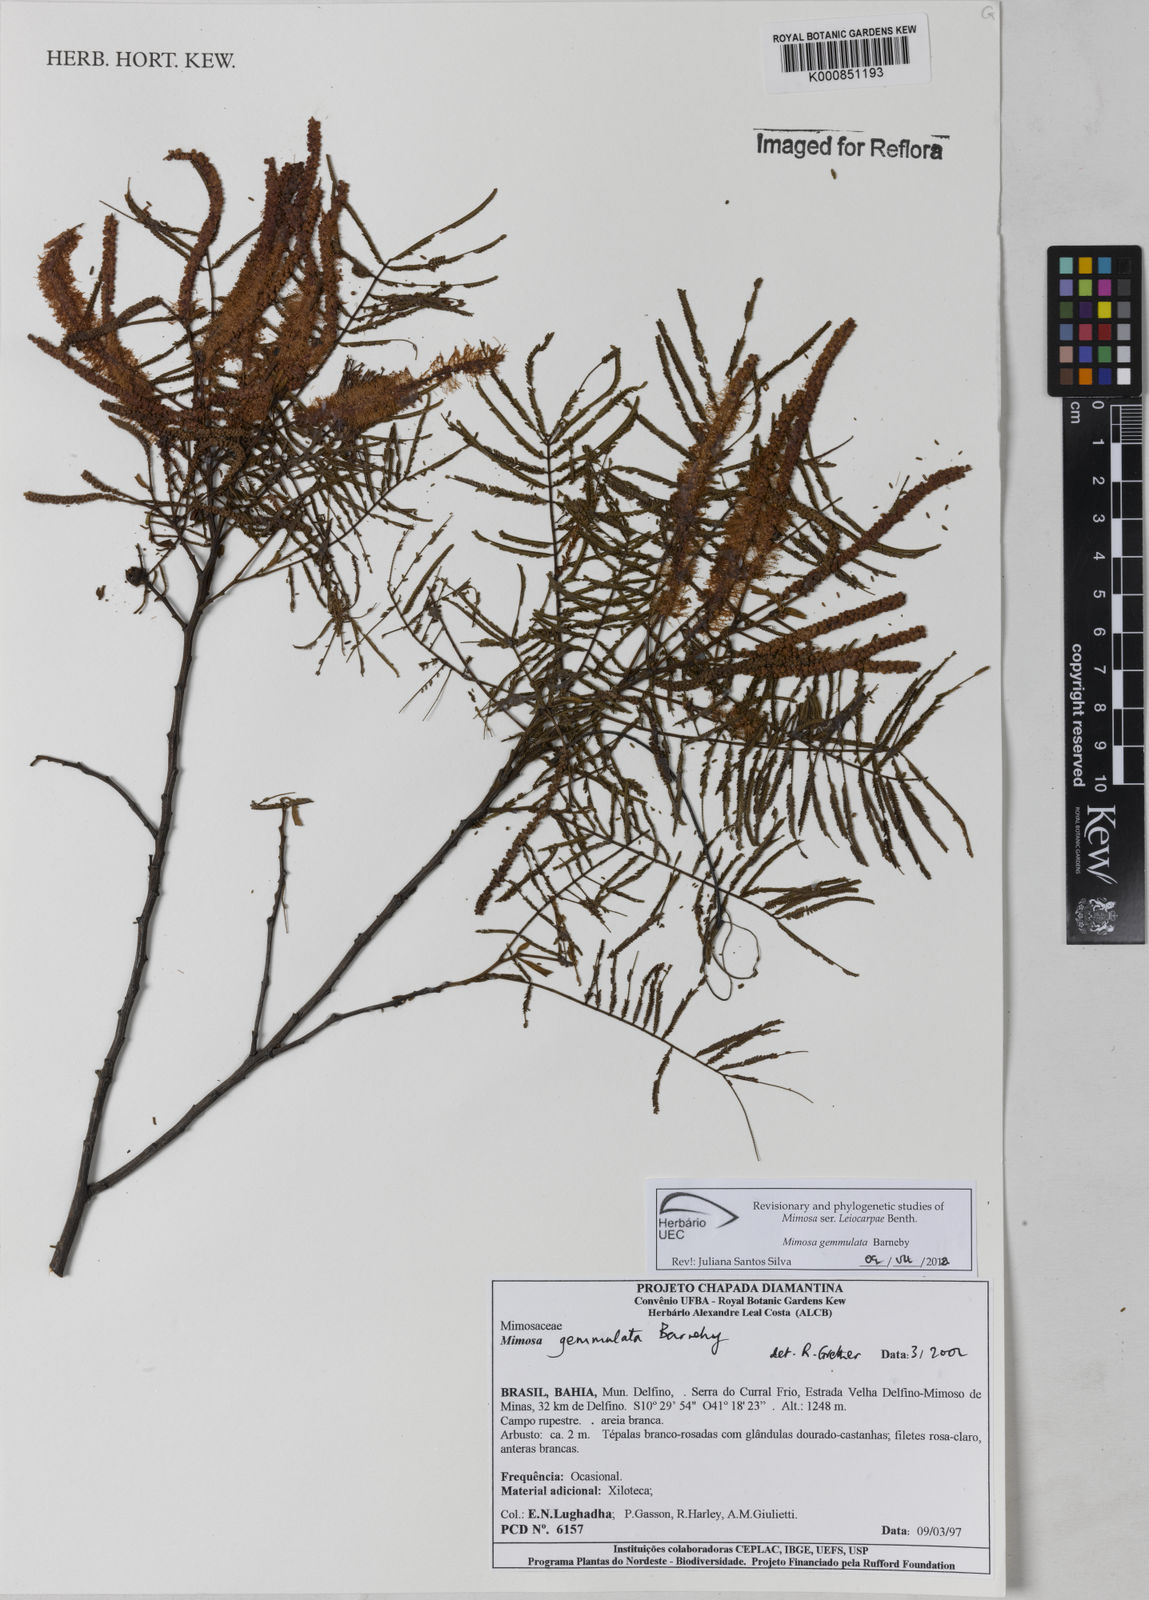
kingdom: Plantae
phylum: Tracheophyta
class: Magnoliopsida
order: Fabales
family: Fabaceae
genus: Mimosa
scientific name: Mimosa gemmulata
